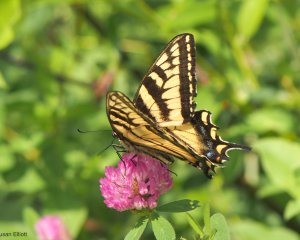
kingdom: Animalia
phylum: Arthropoda
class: Insecta
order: Lepidoptera
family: Papilionidae
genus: Pterourus
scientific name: Pterourus canadensis
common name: Canadian Tiger Swallowtail
